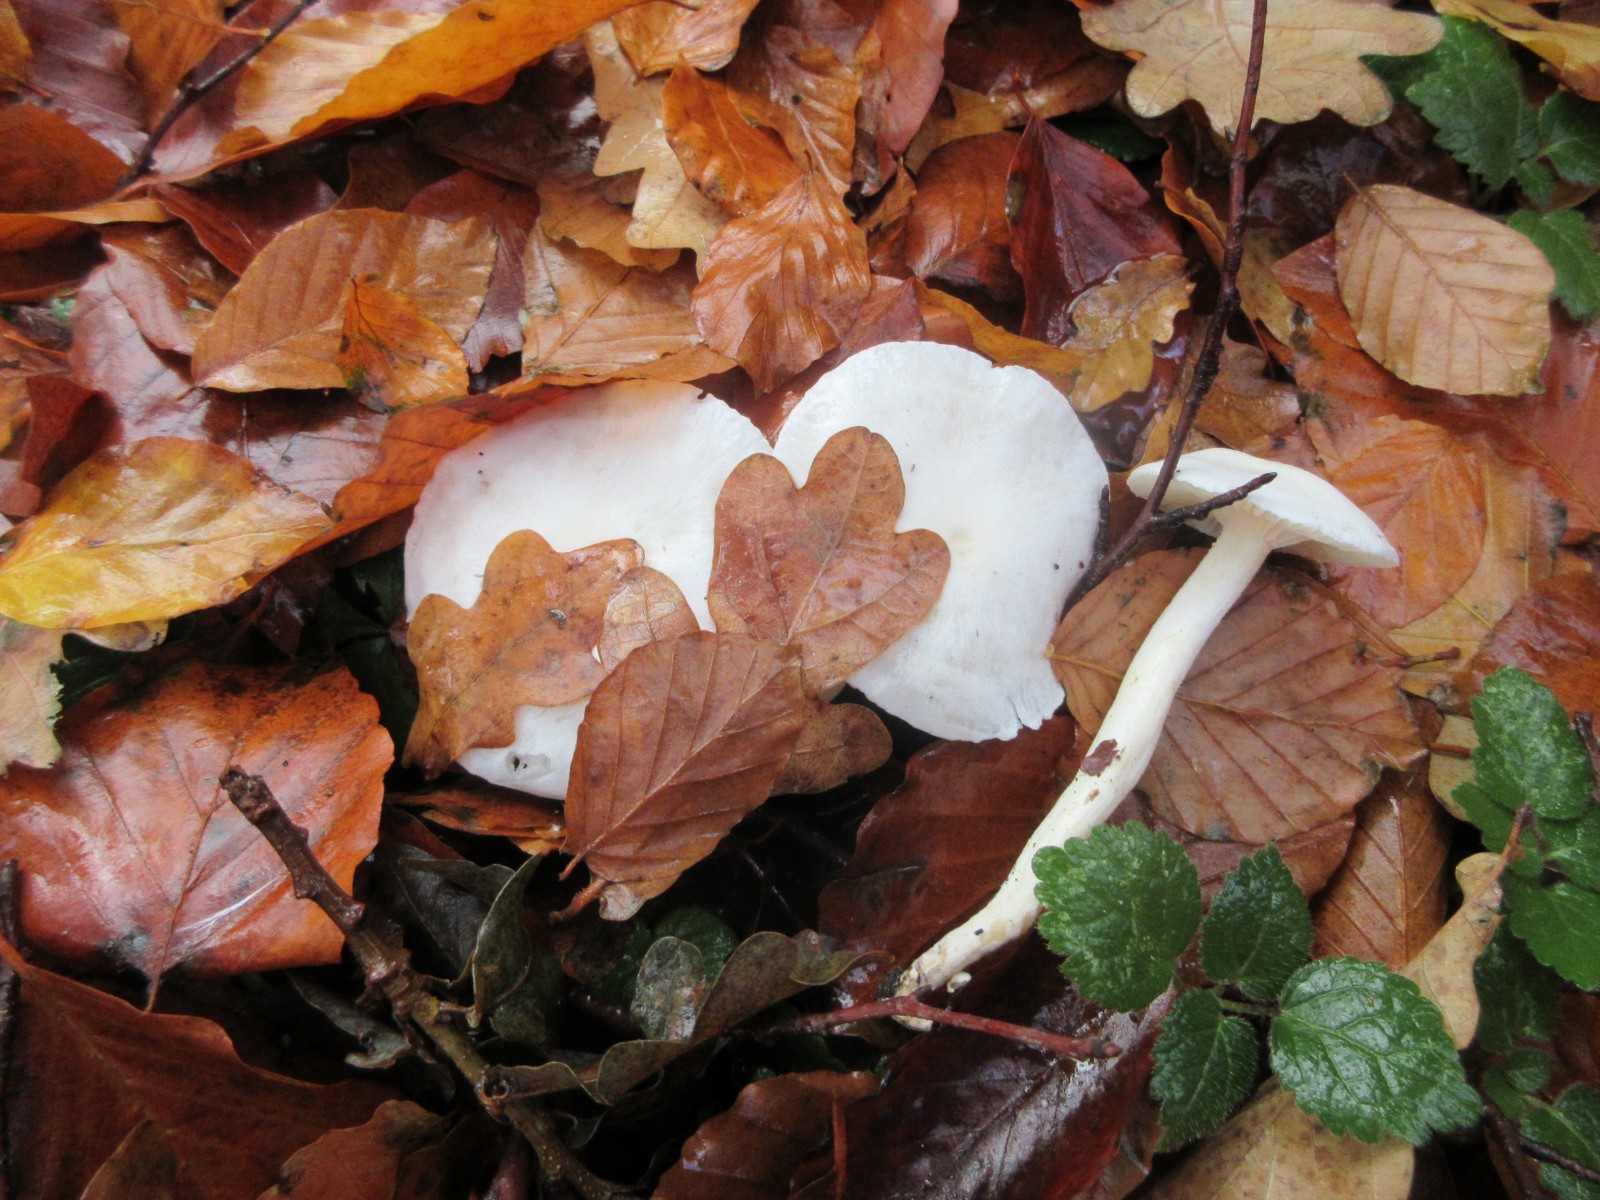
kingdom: Fungi
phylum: Basidiomycota
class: Agaricomycetes
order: Agaricales
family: Hygrophoraceae
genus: Hygrophorus
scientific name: Hygrophorus eburneus
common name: elfenbens-sneglehat
